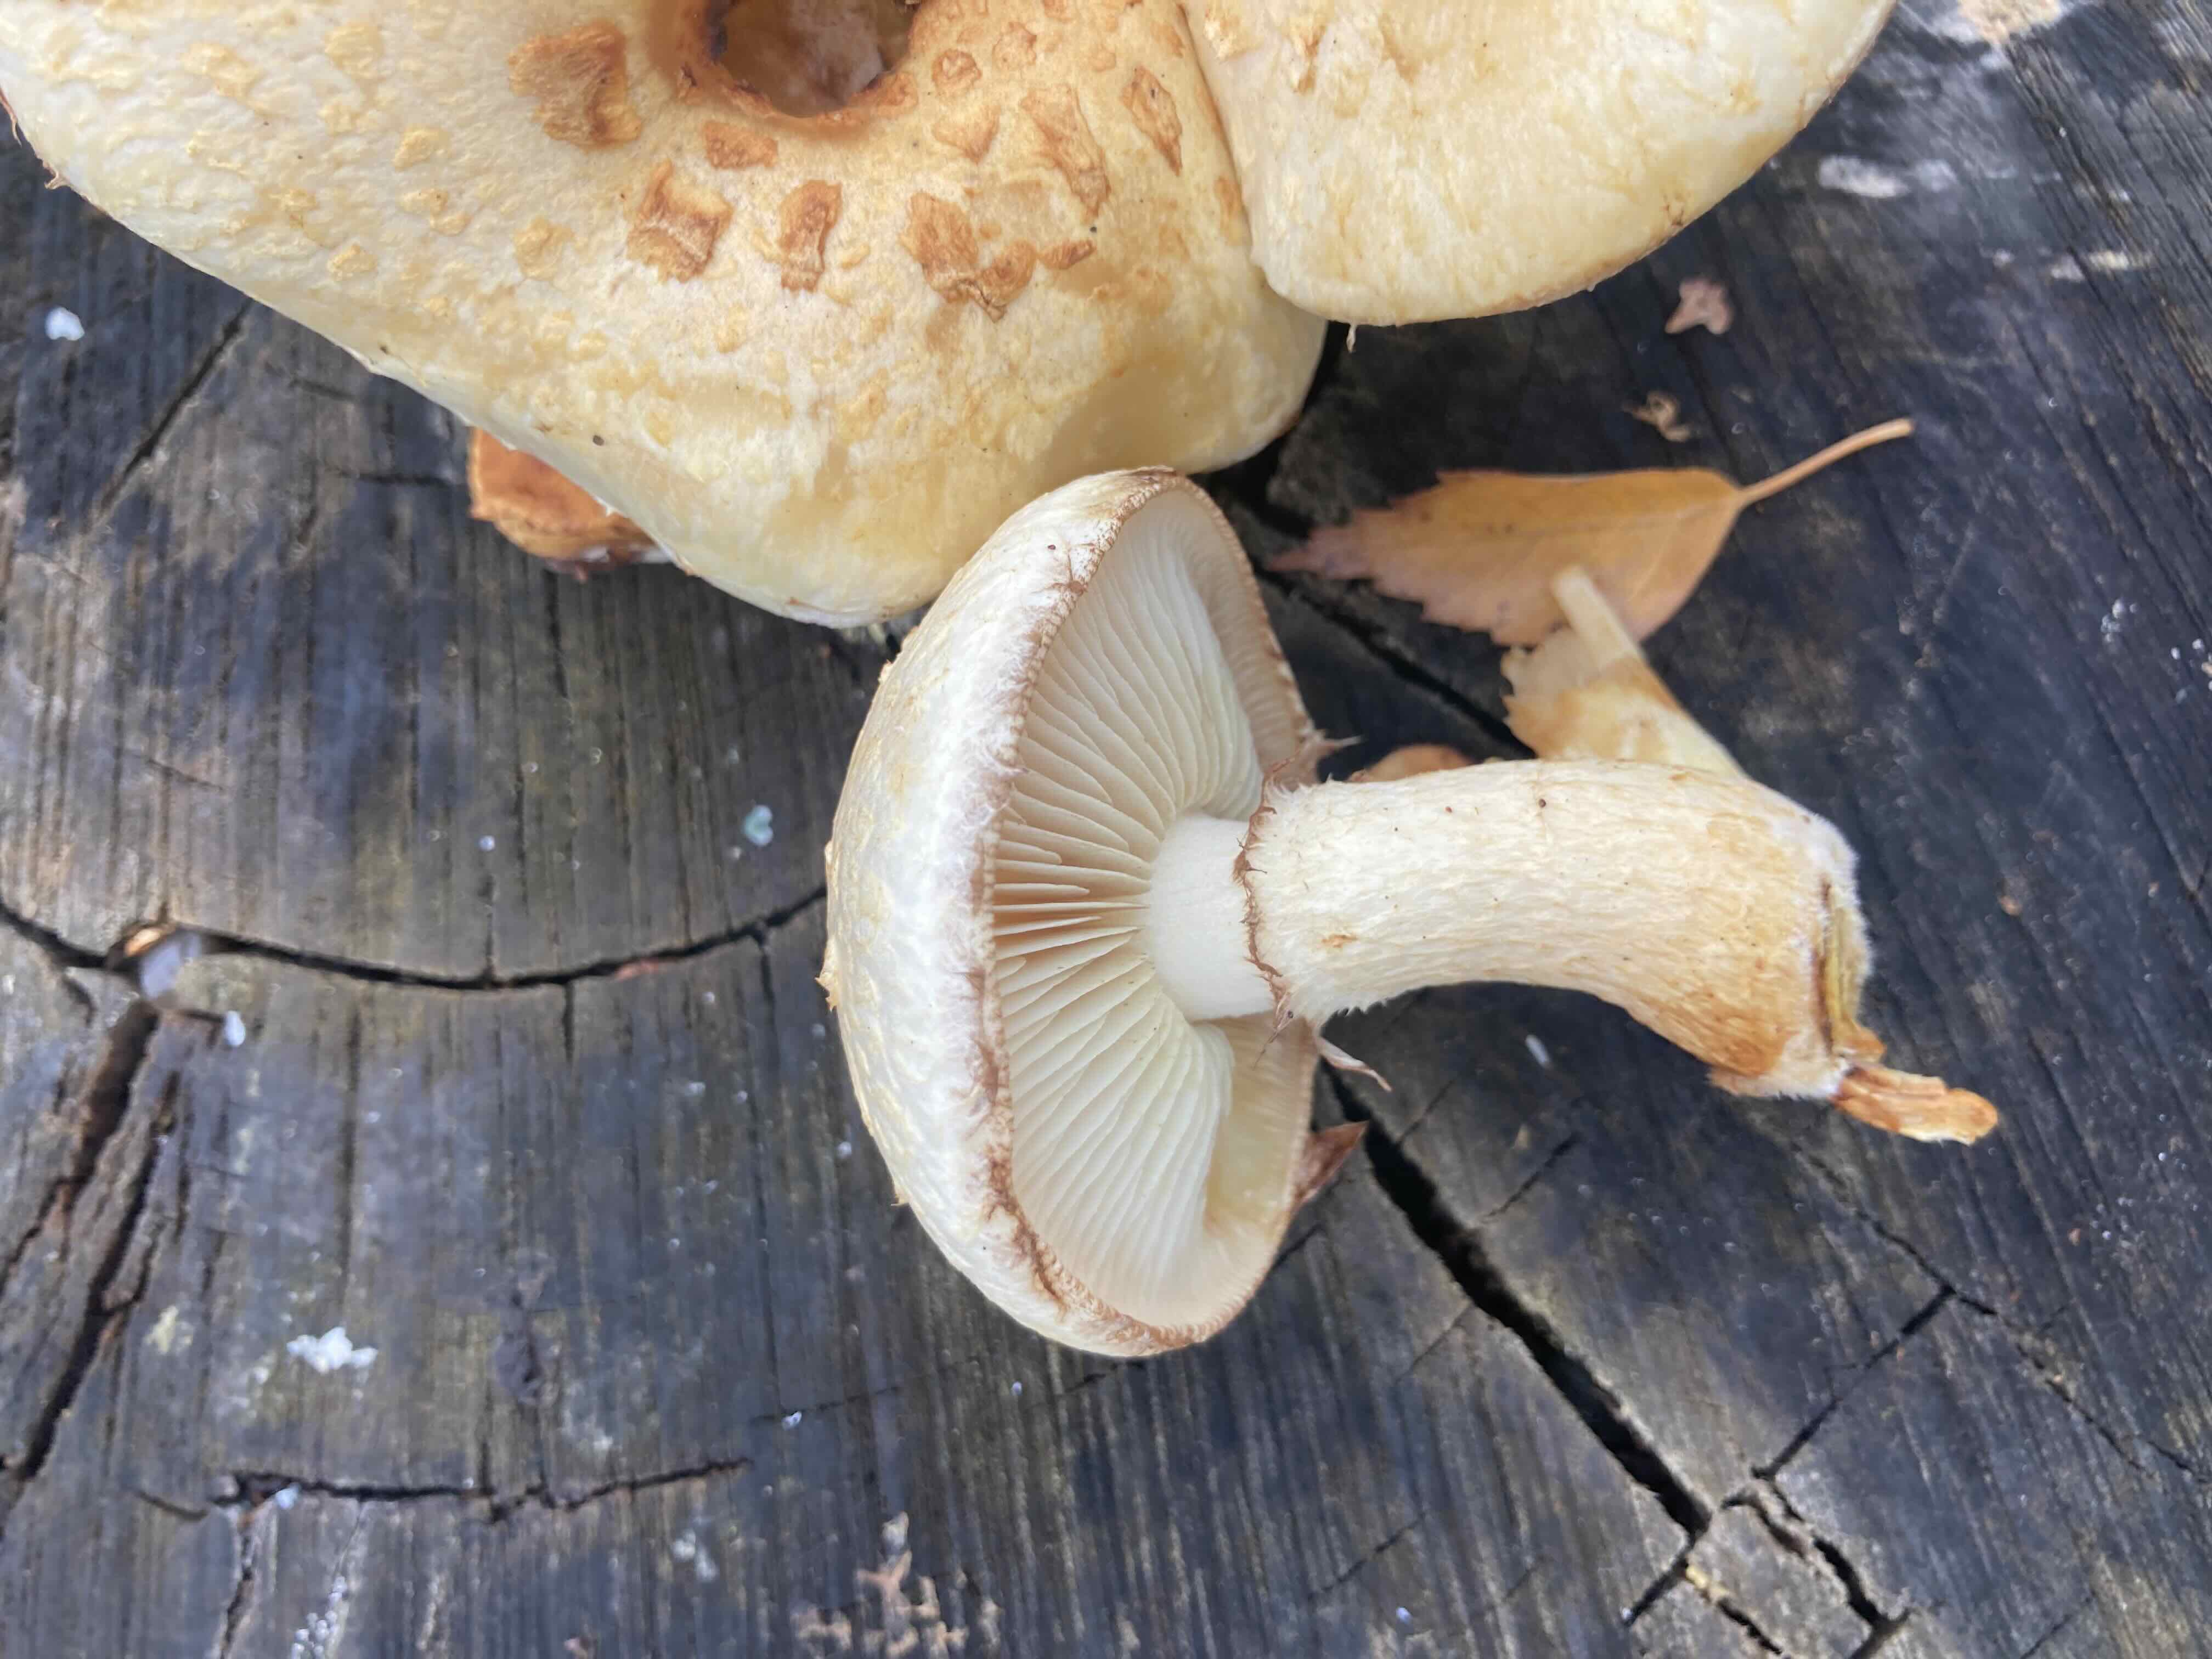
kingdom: Fungi
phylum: Basidiomycota
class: Agaricomycetes
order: Agaricales
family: Strophariaceae
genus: Pholiota
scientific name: Pholiota heteroclita
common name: duftende kæmpeskælhat
